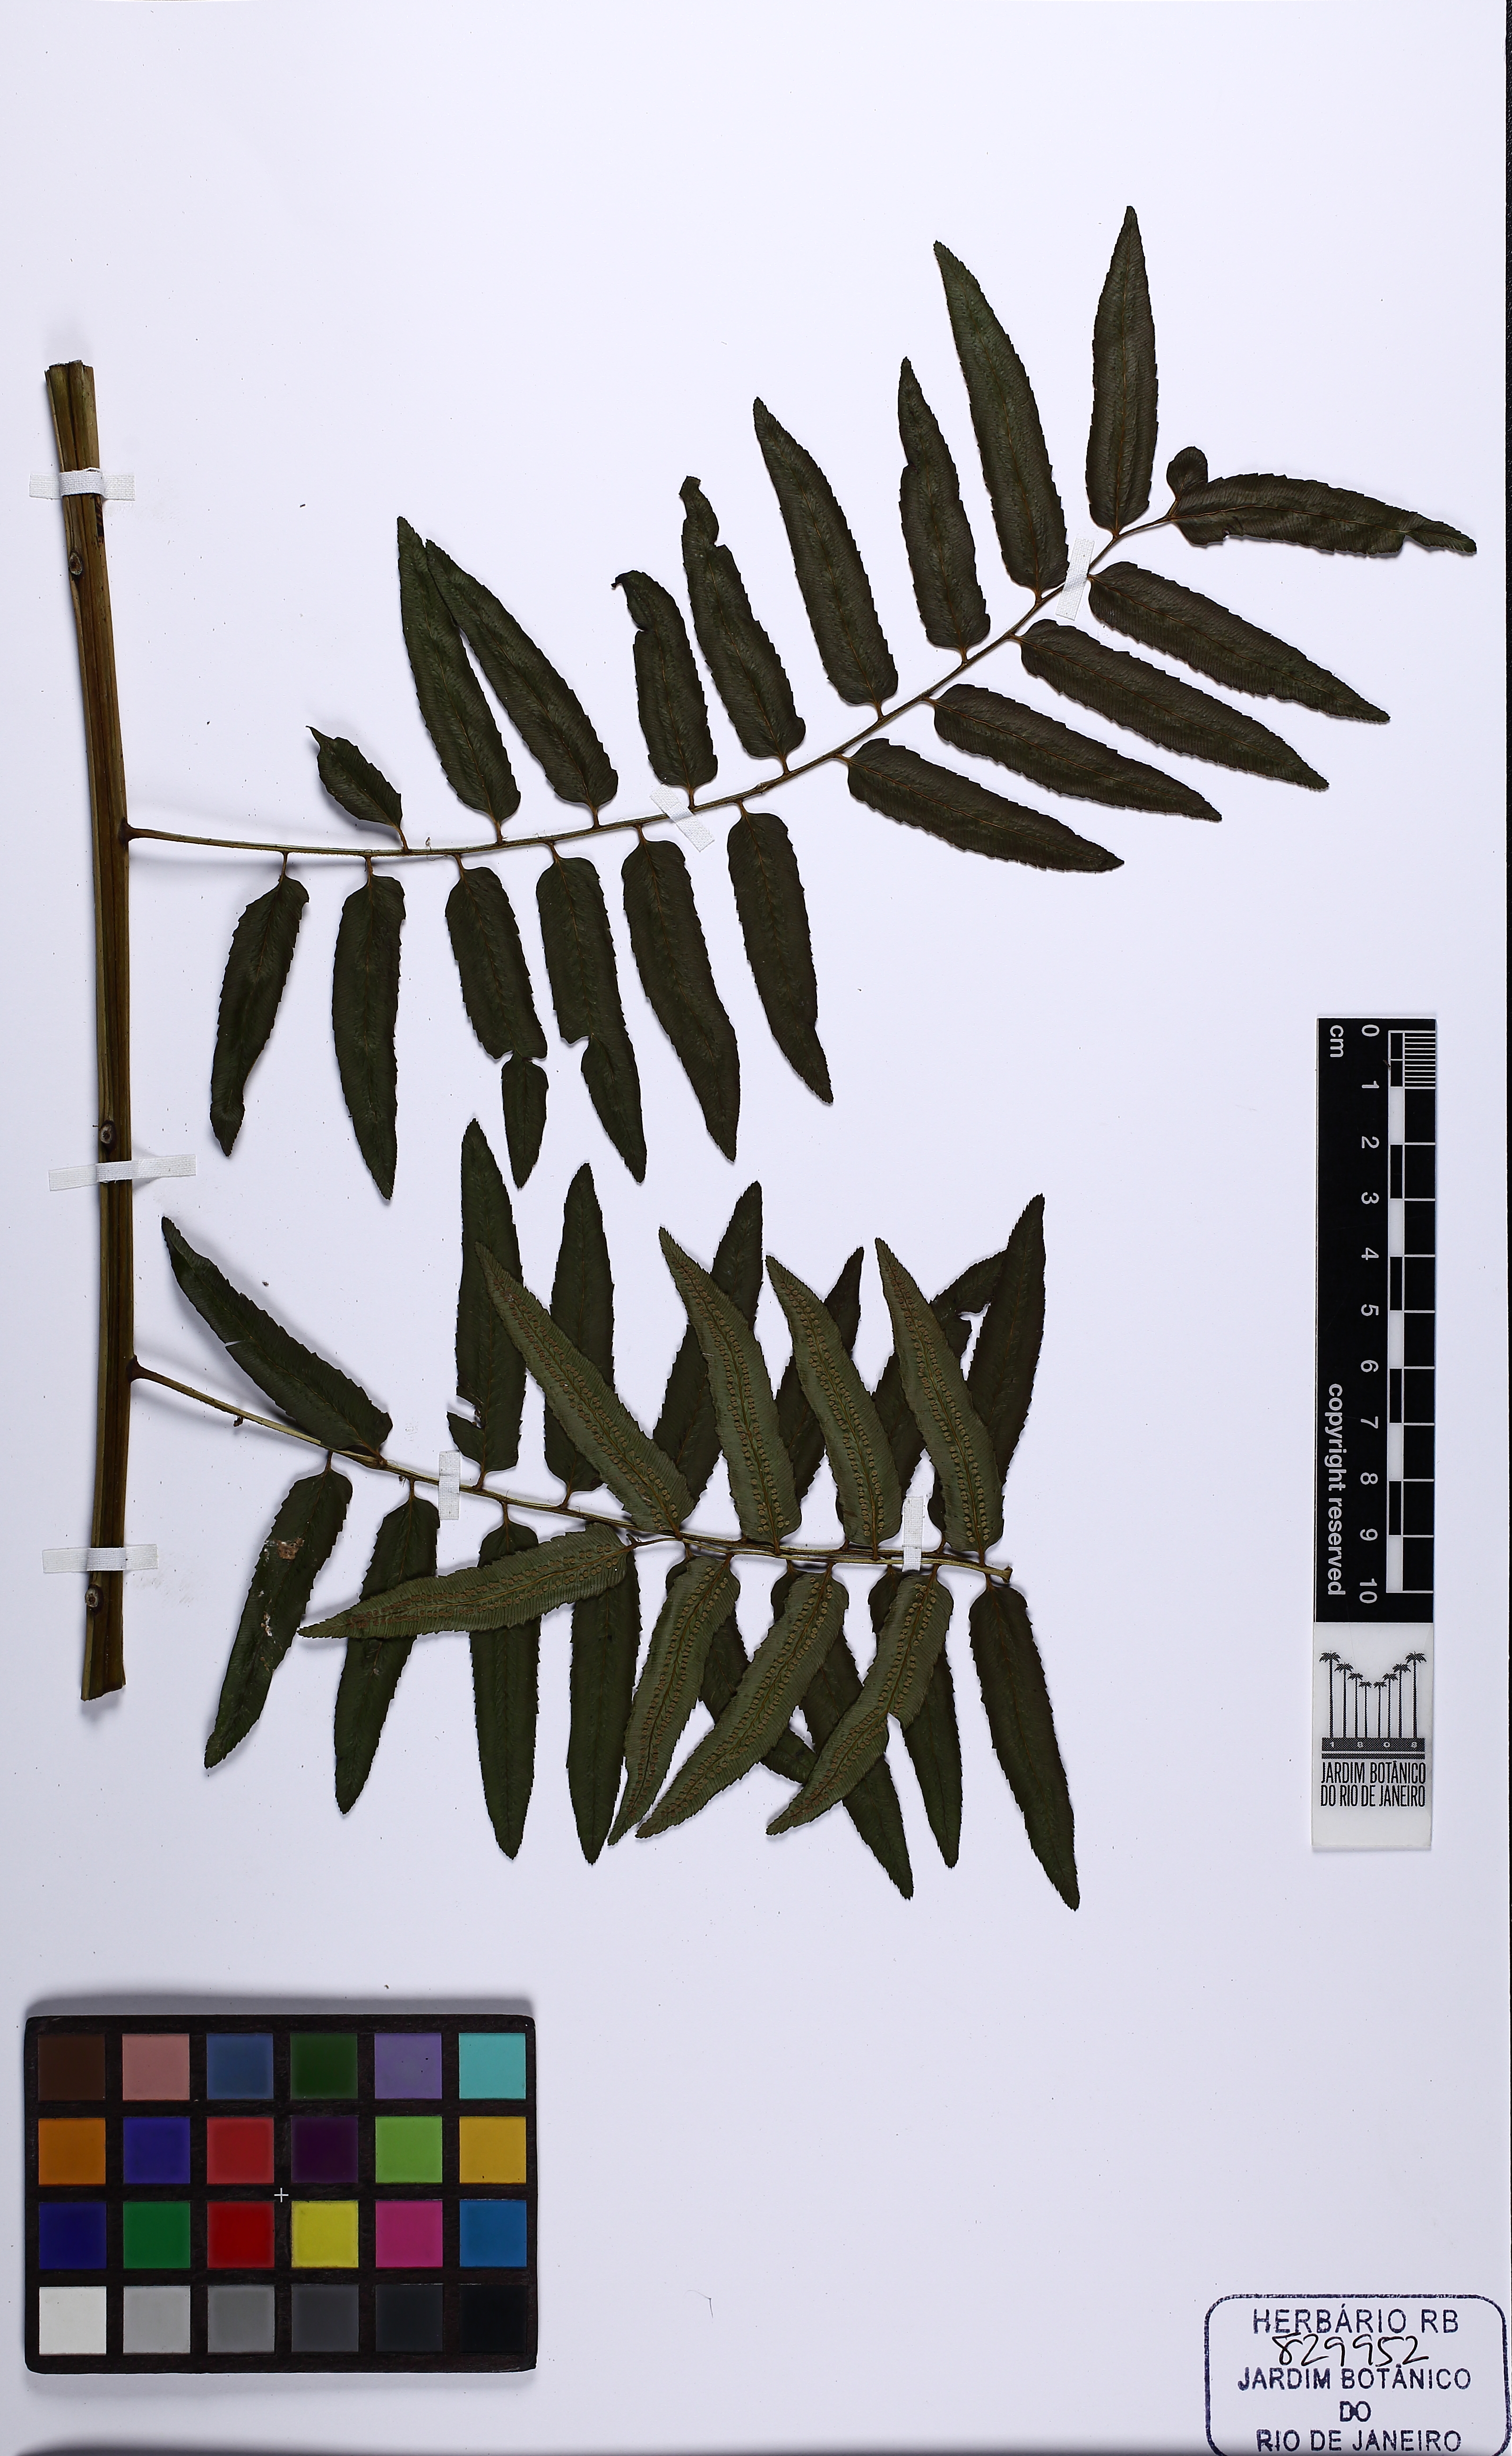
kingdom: Plantae
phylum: Tracheophyta
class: Polypodiopsida
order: Cyatheales
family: Cyatheaceae
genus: Cyathea
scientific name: Cyathea corcovadensis
